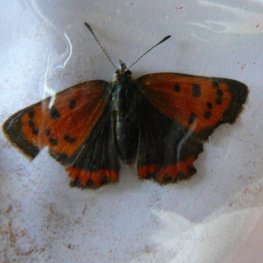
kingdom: Animalia
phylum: Arthropoda
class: Insecta
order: Lepidoptera
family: Lycaenidae
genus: Lycaena
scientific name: Lycaena phlaeas
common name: American Copper
